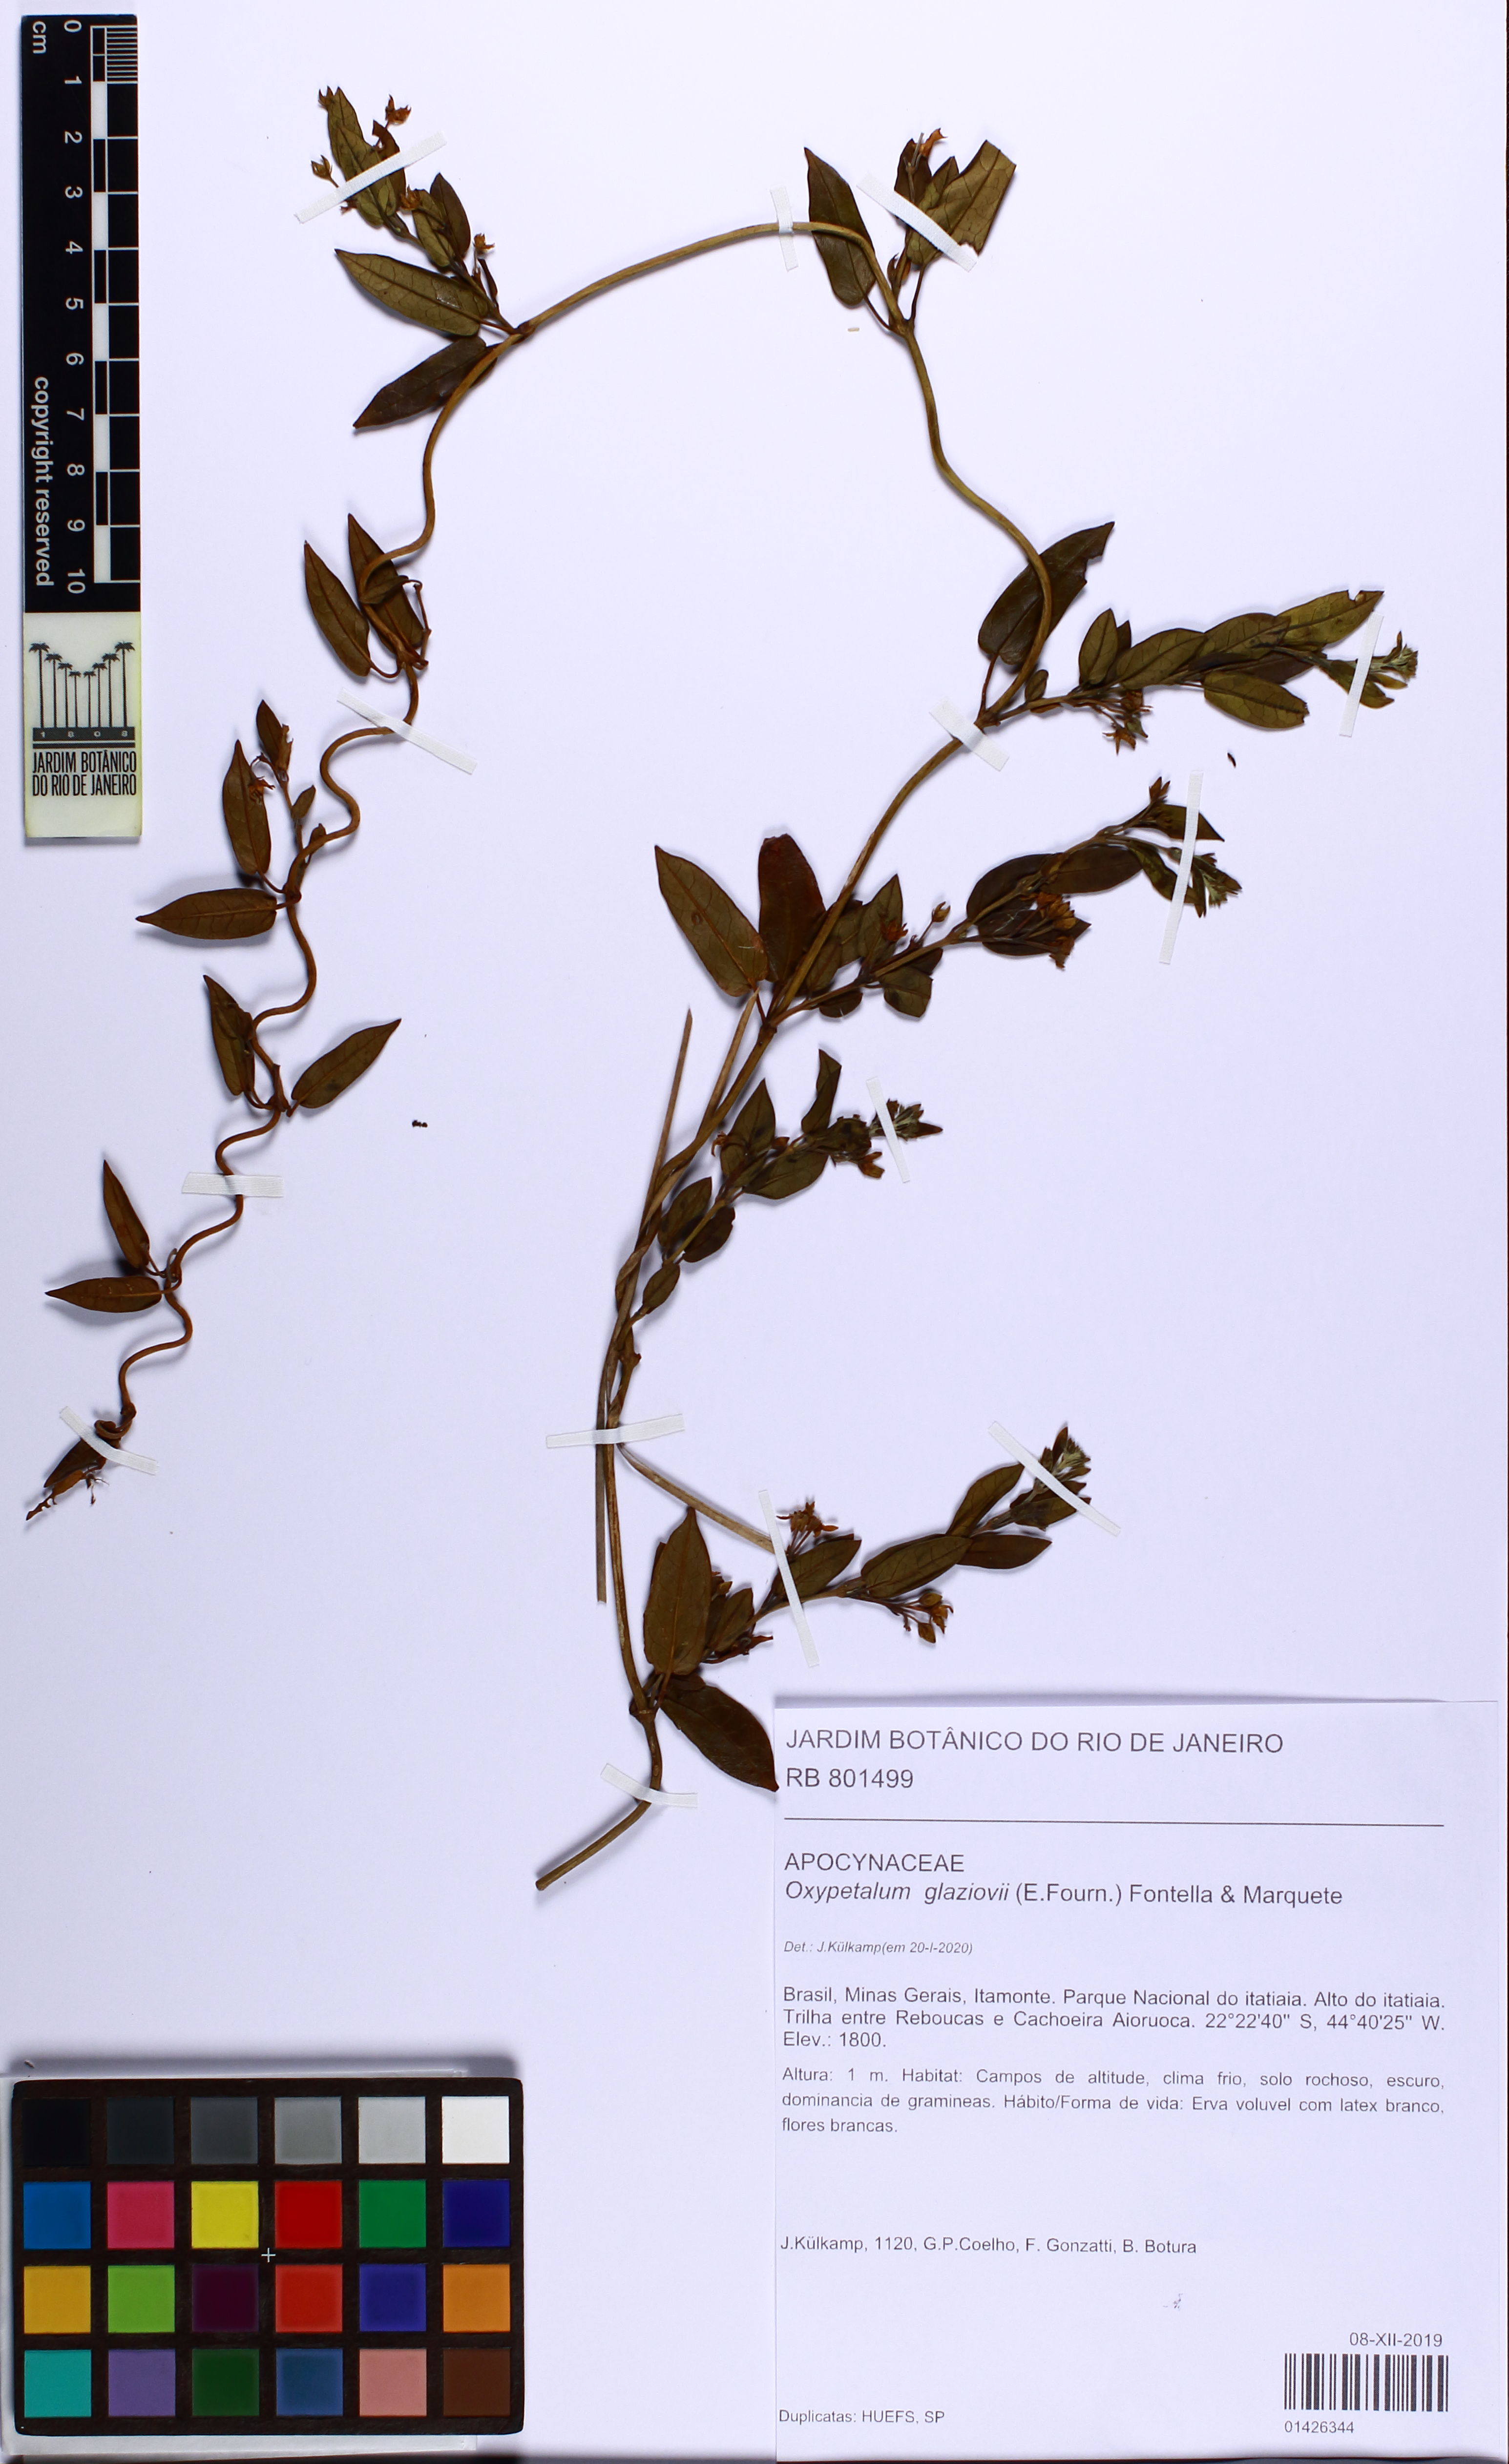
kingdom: Plantae
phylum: Tracheophyta
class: Magnoliopsida
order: Gentianales
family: Apocynaceae
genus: Oxypetalum
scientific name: Oxypetalum glaziovii
